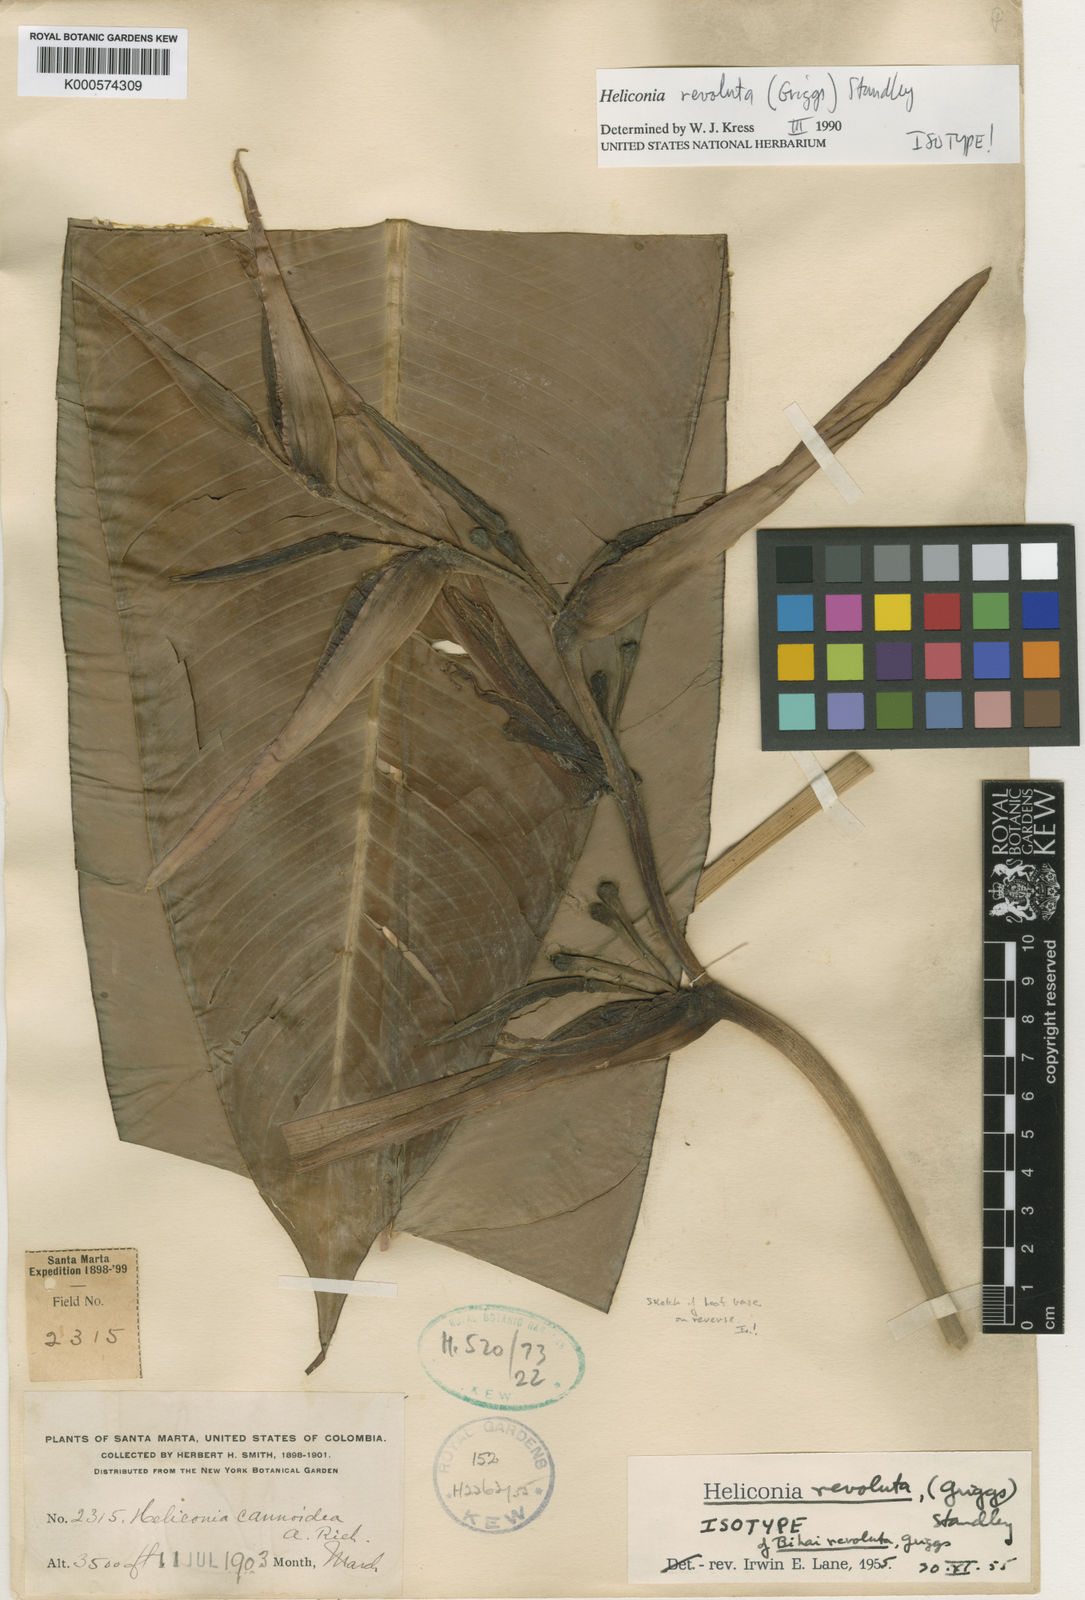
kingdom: Plantae
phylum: Tracheophyta
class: Liliopsida
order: Zingiberales
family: Heliconiaceae
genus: Heliconia
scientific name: Heliconia revoluta
